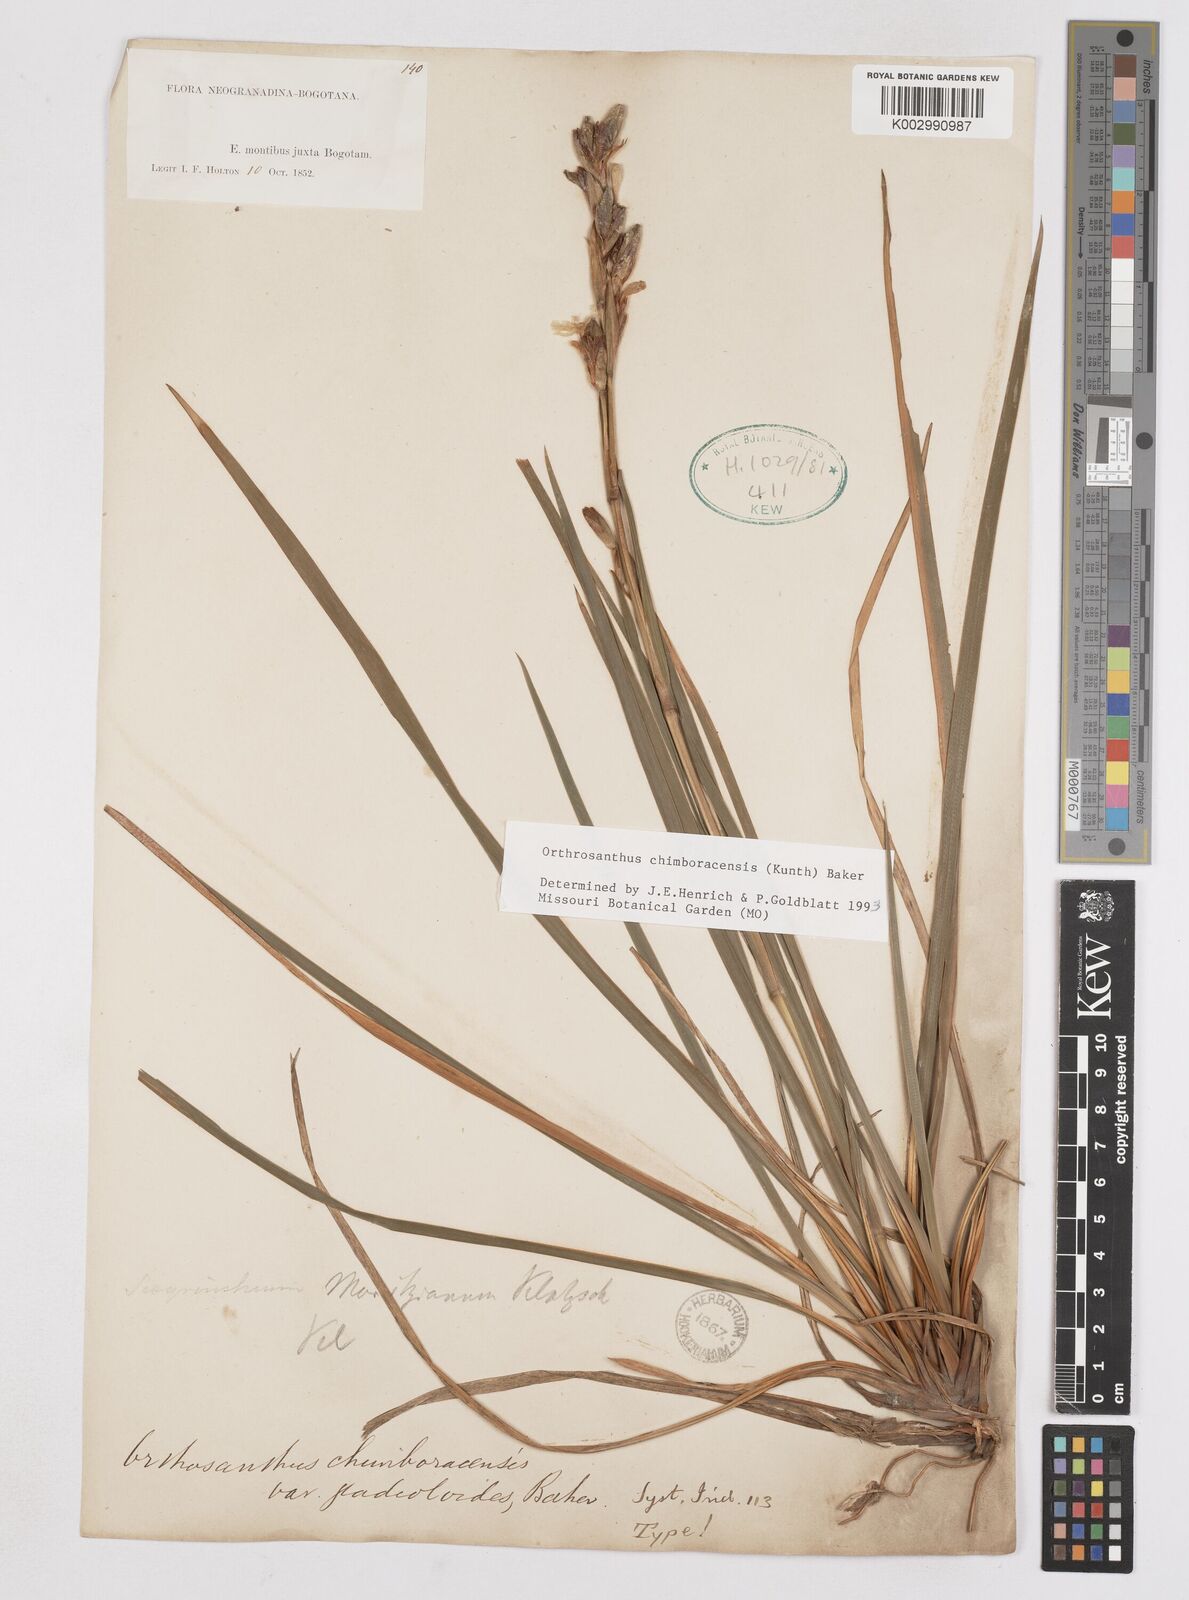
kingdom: Plantae
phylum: Tracheophyta
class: Liliopsida
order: Asparagales
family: Iridaceae
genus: Orthrosanthus
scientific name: Orthrosanthus chimboracensis
